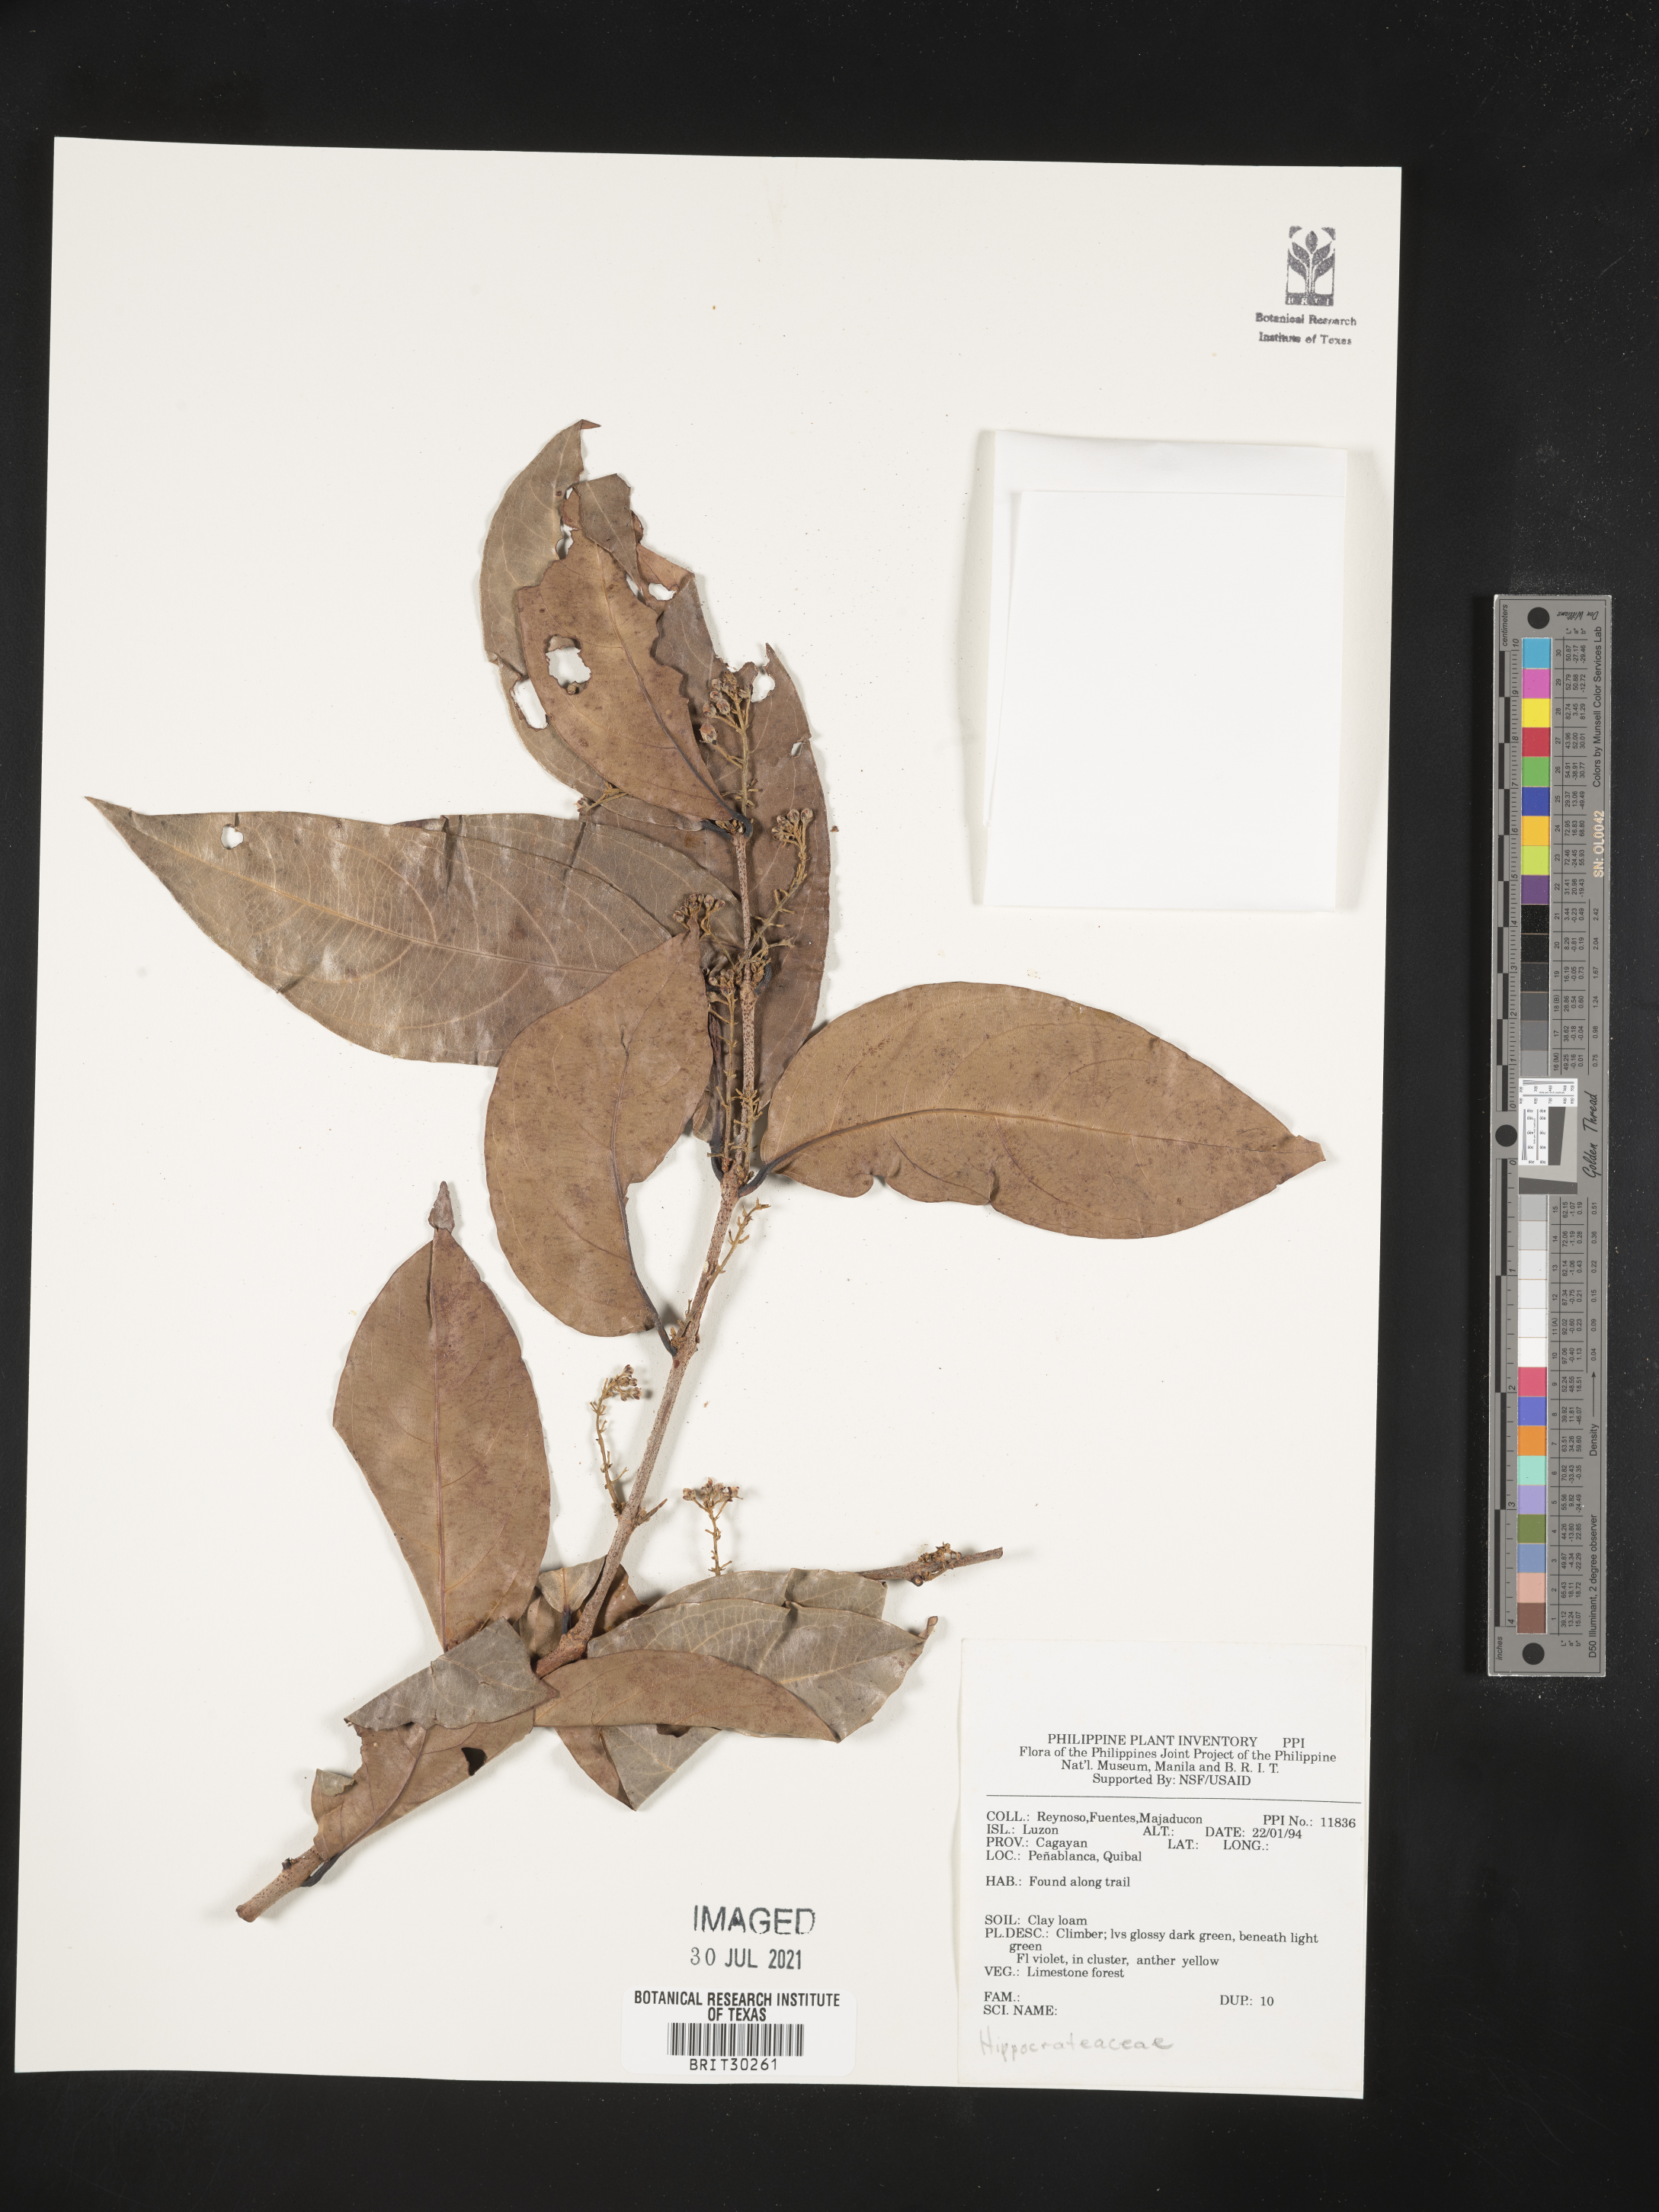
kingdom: Plantae
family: Hippocrateaceae
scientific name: Hippocrateaceae
